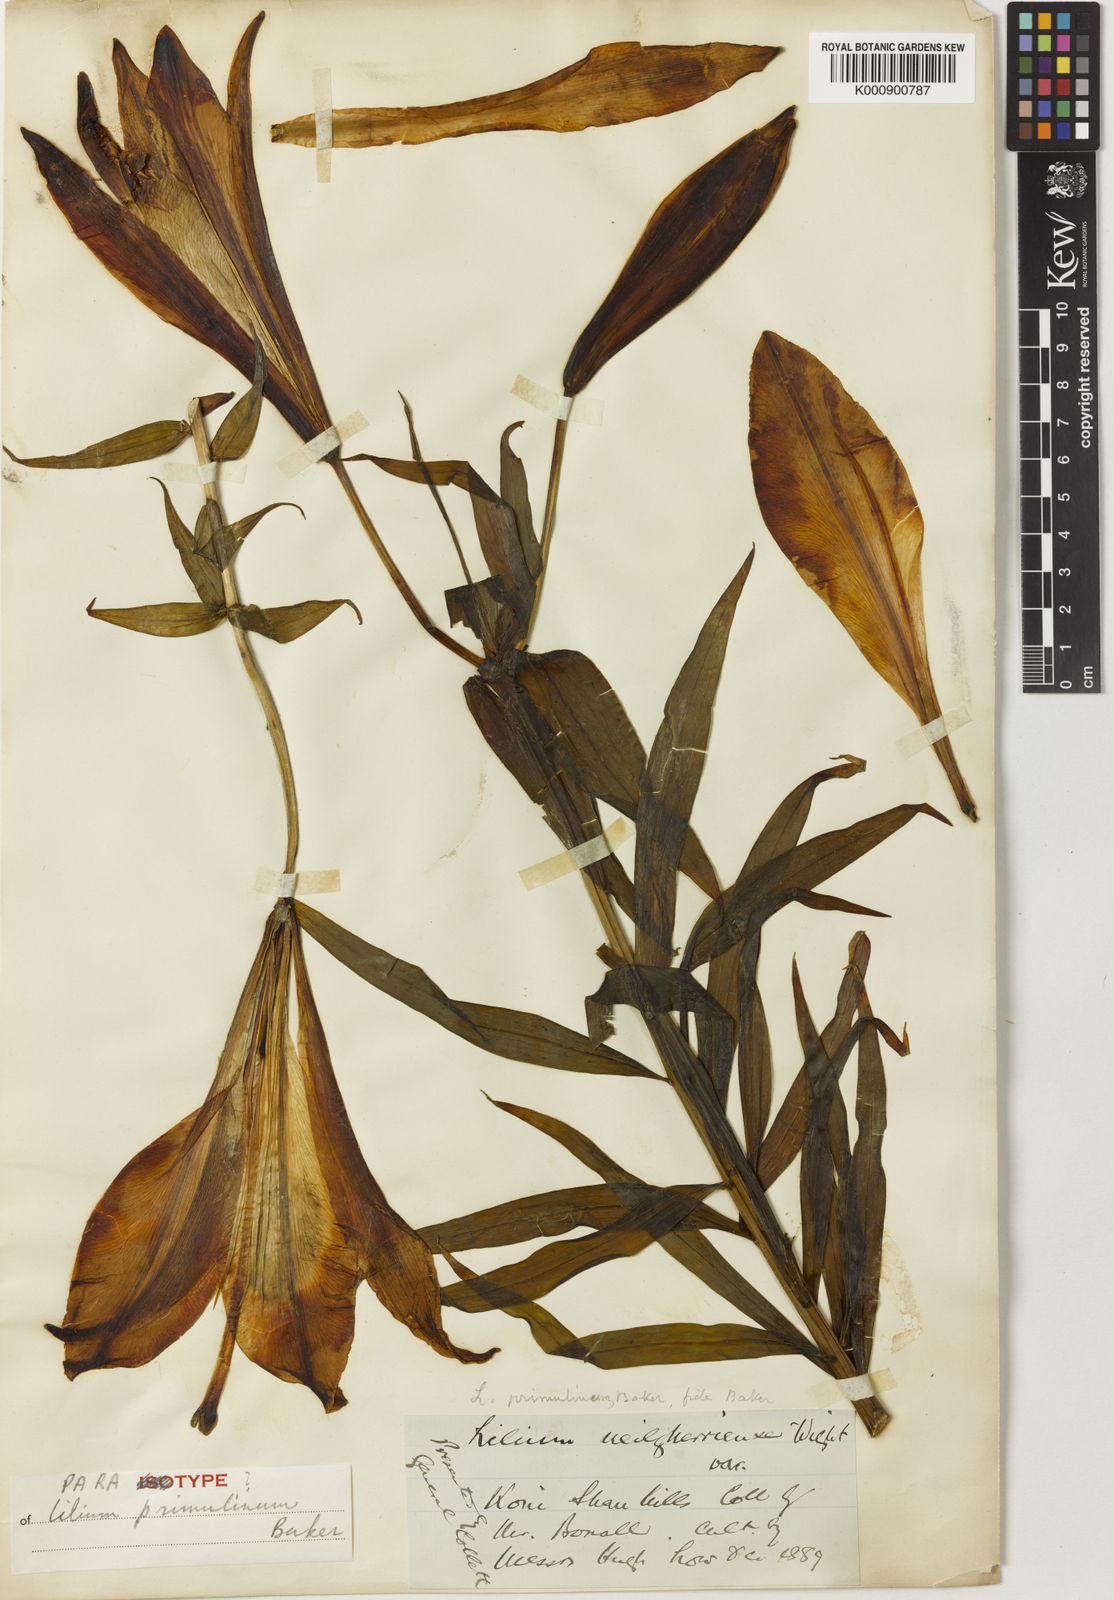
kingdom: Plantae
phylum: Tracheophyta
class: Liliopsida
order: Liliales
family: Liliaceae
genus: Lilium
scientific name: Lilium primulinum
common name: Ochre lily
